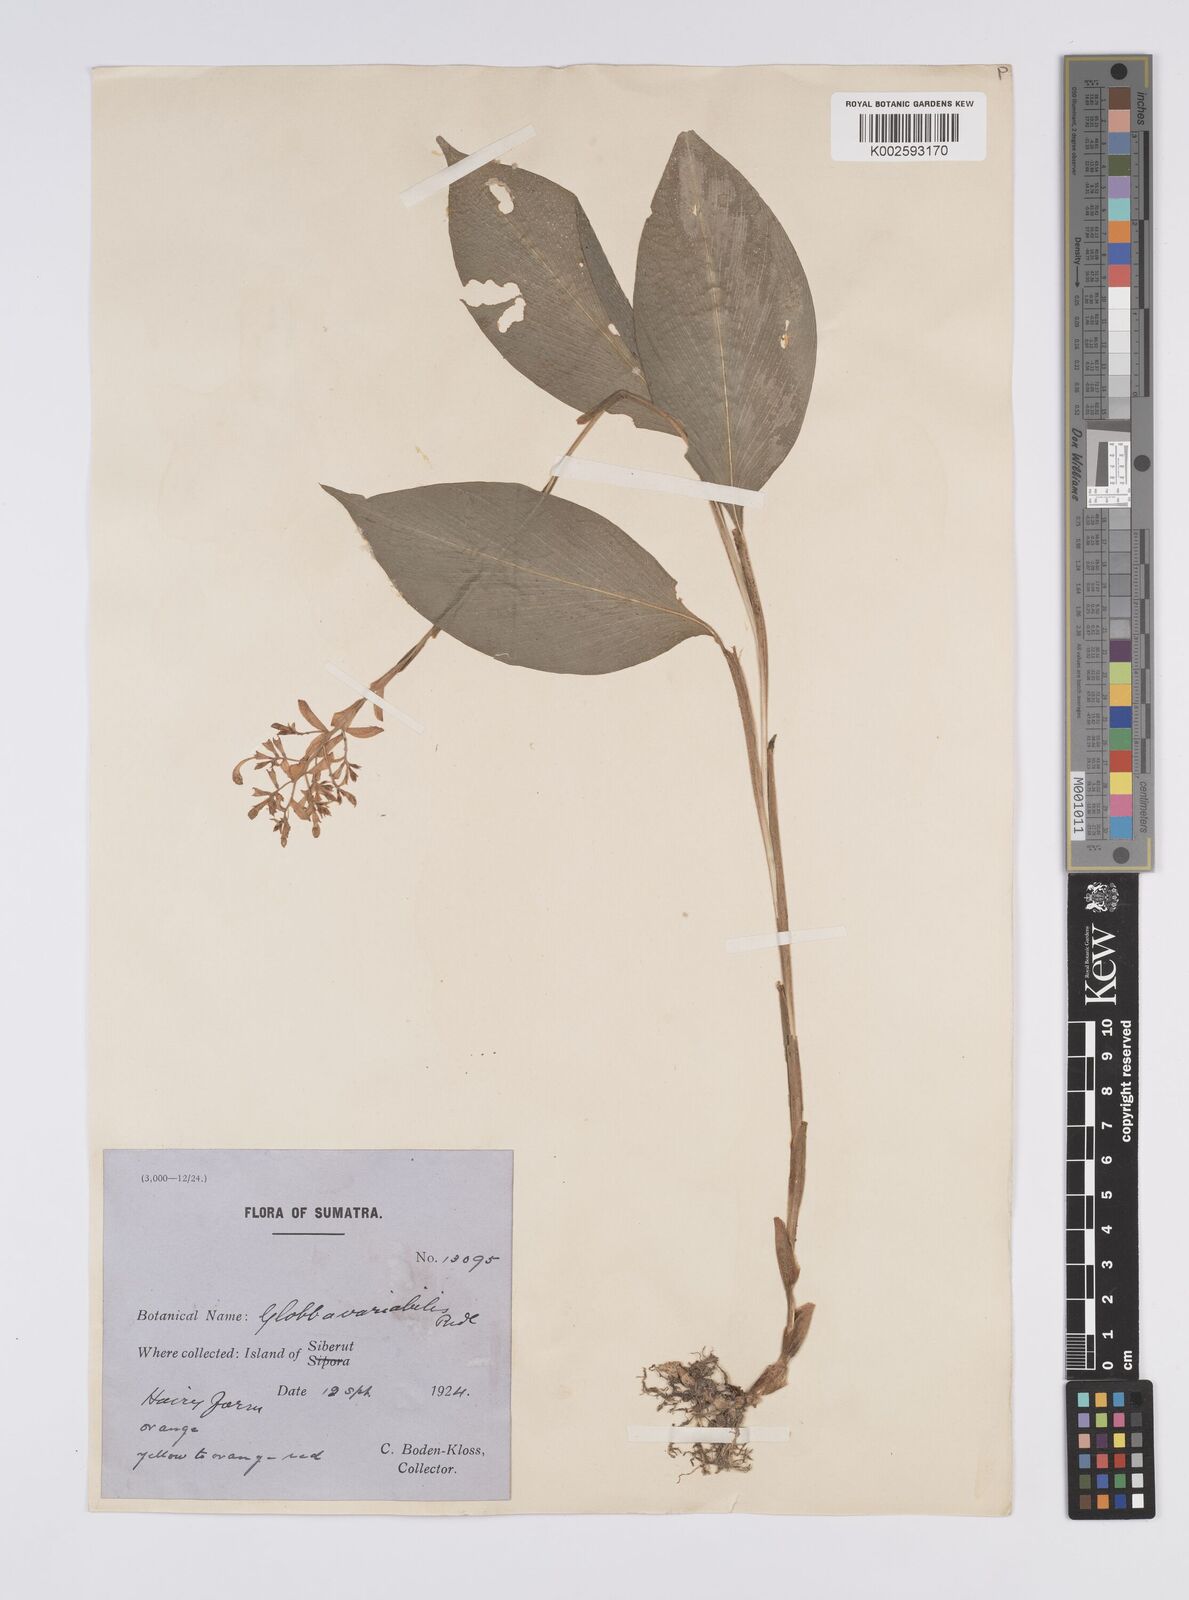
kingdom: Plantae
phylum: Tracheophyta
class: Liliopsida
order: Zingiberales
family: Zingiberaceae
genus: Globba
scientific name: Globba variabilis
